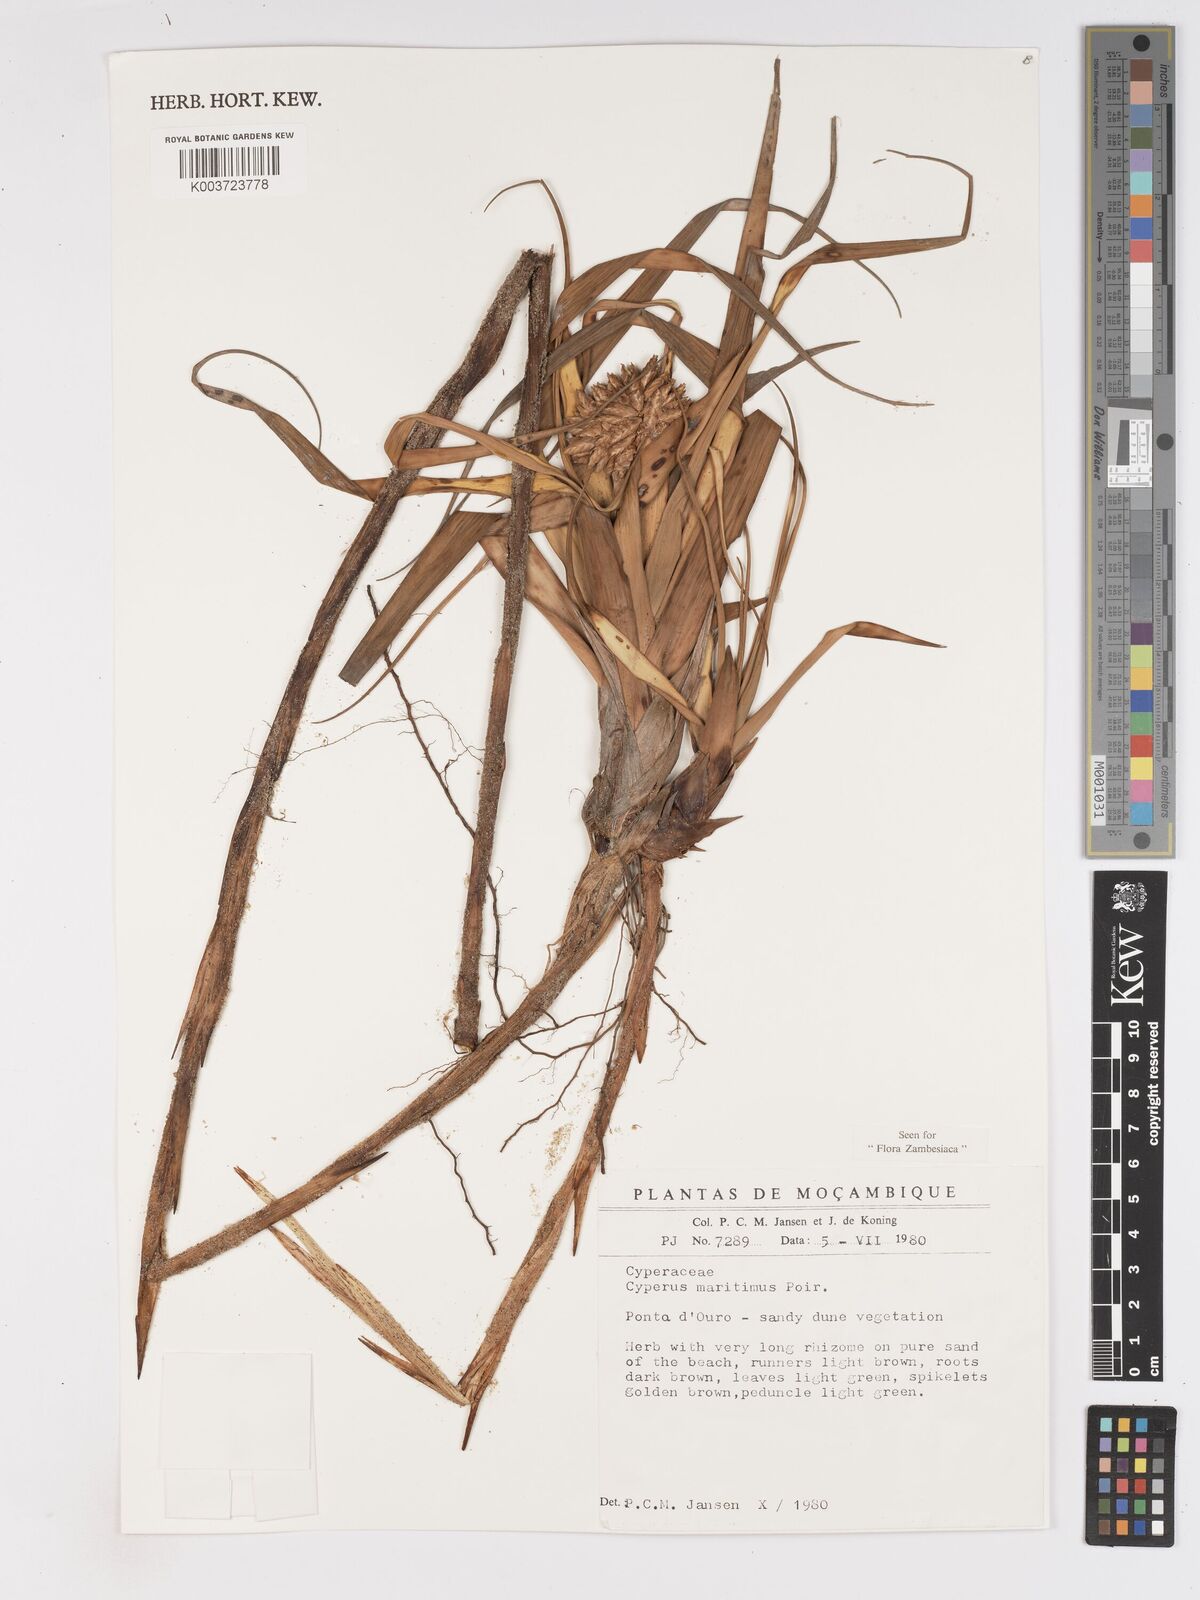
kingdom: Plantae
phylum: Tracheophyta
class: Liliopsida
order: Poales
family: Cyperaceae
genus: Cyperus
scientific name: Cyperus crassipes
